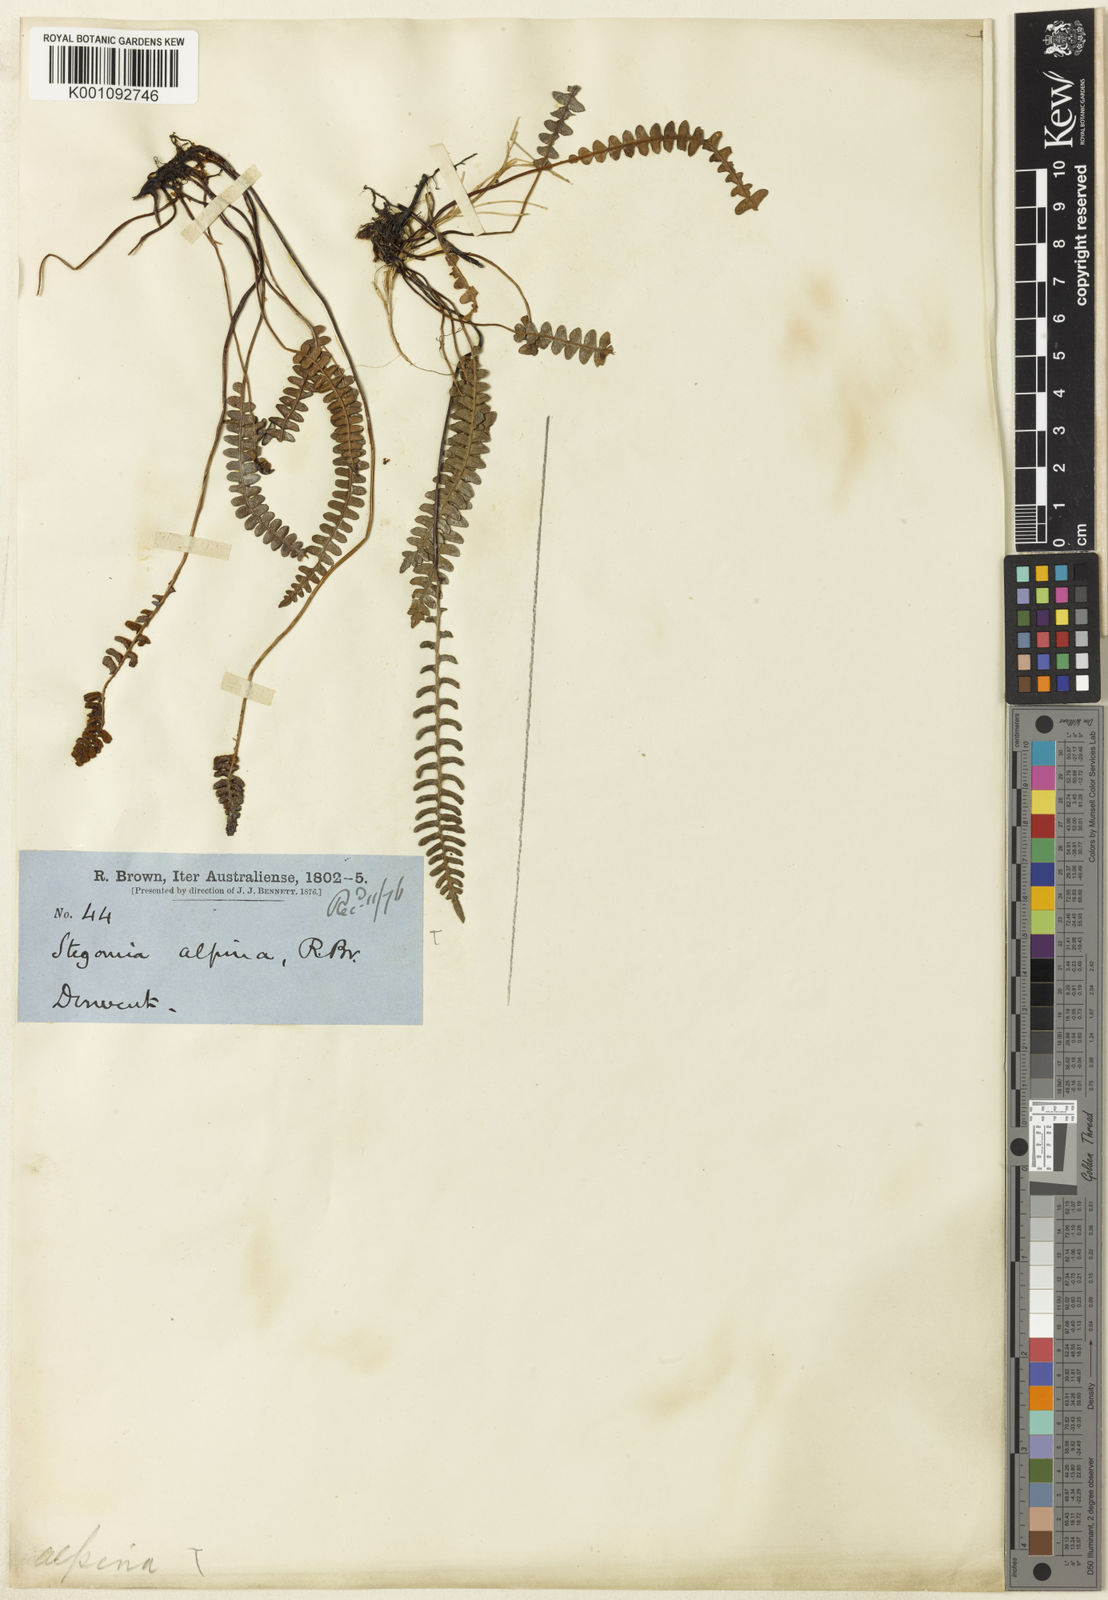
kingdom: Plantae
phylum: Tracheophyta
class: Polypodiopsida
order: Polypodiales
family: Blechnaceae
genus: Blechnum
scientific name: Blechnum
